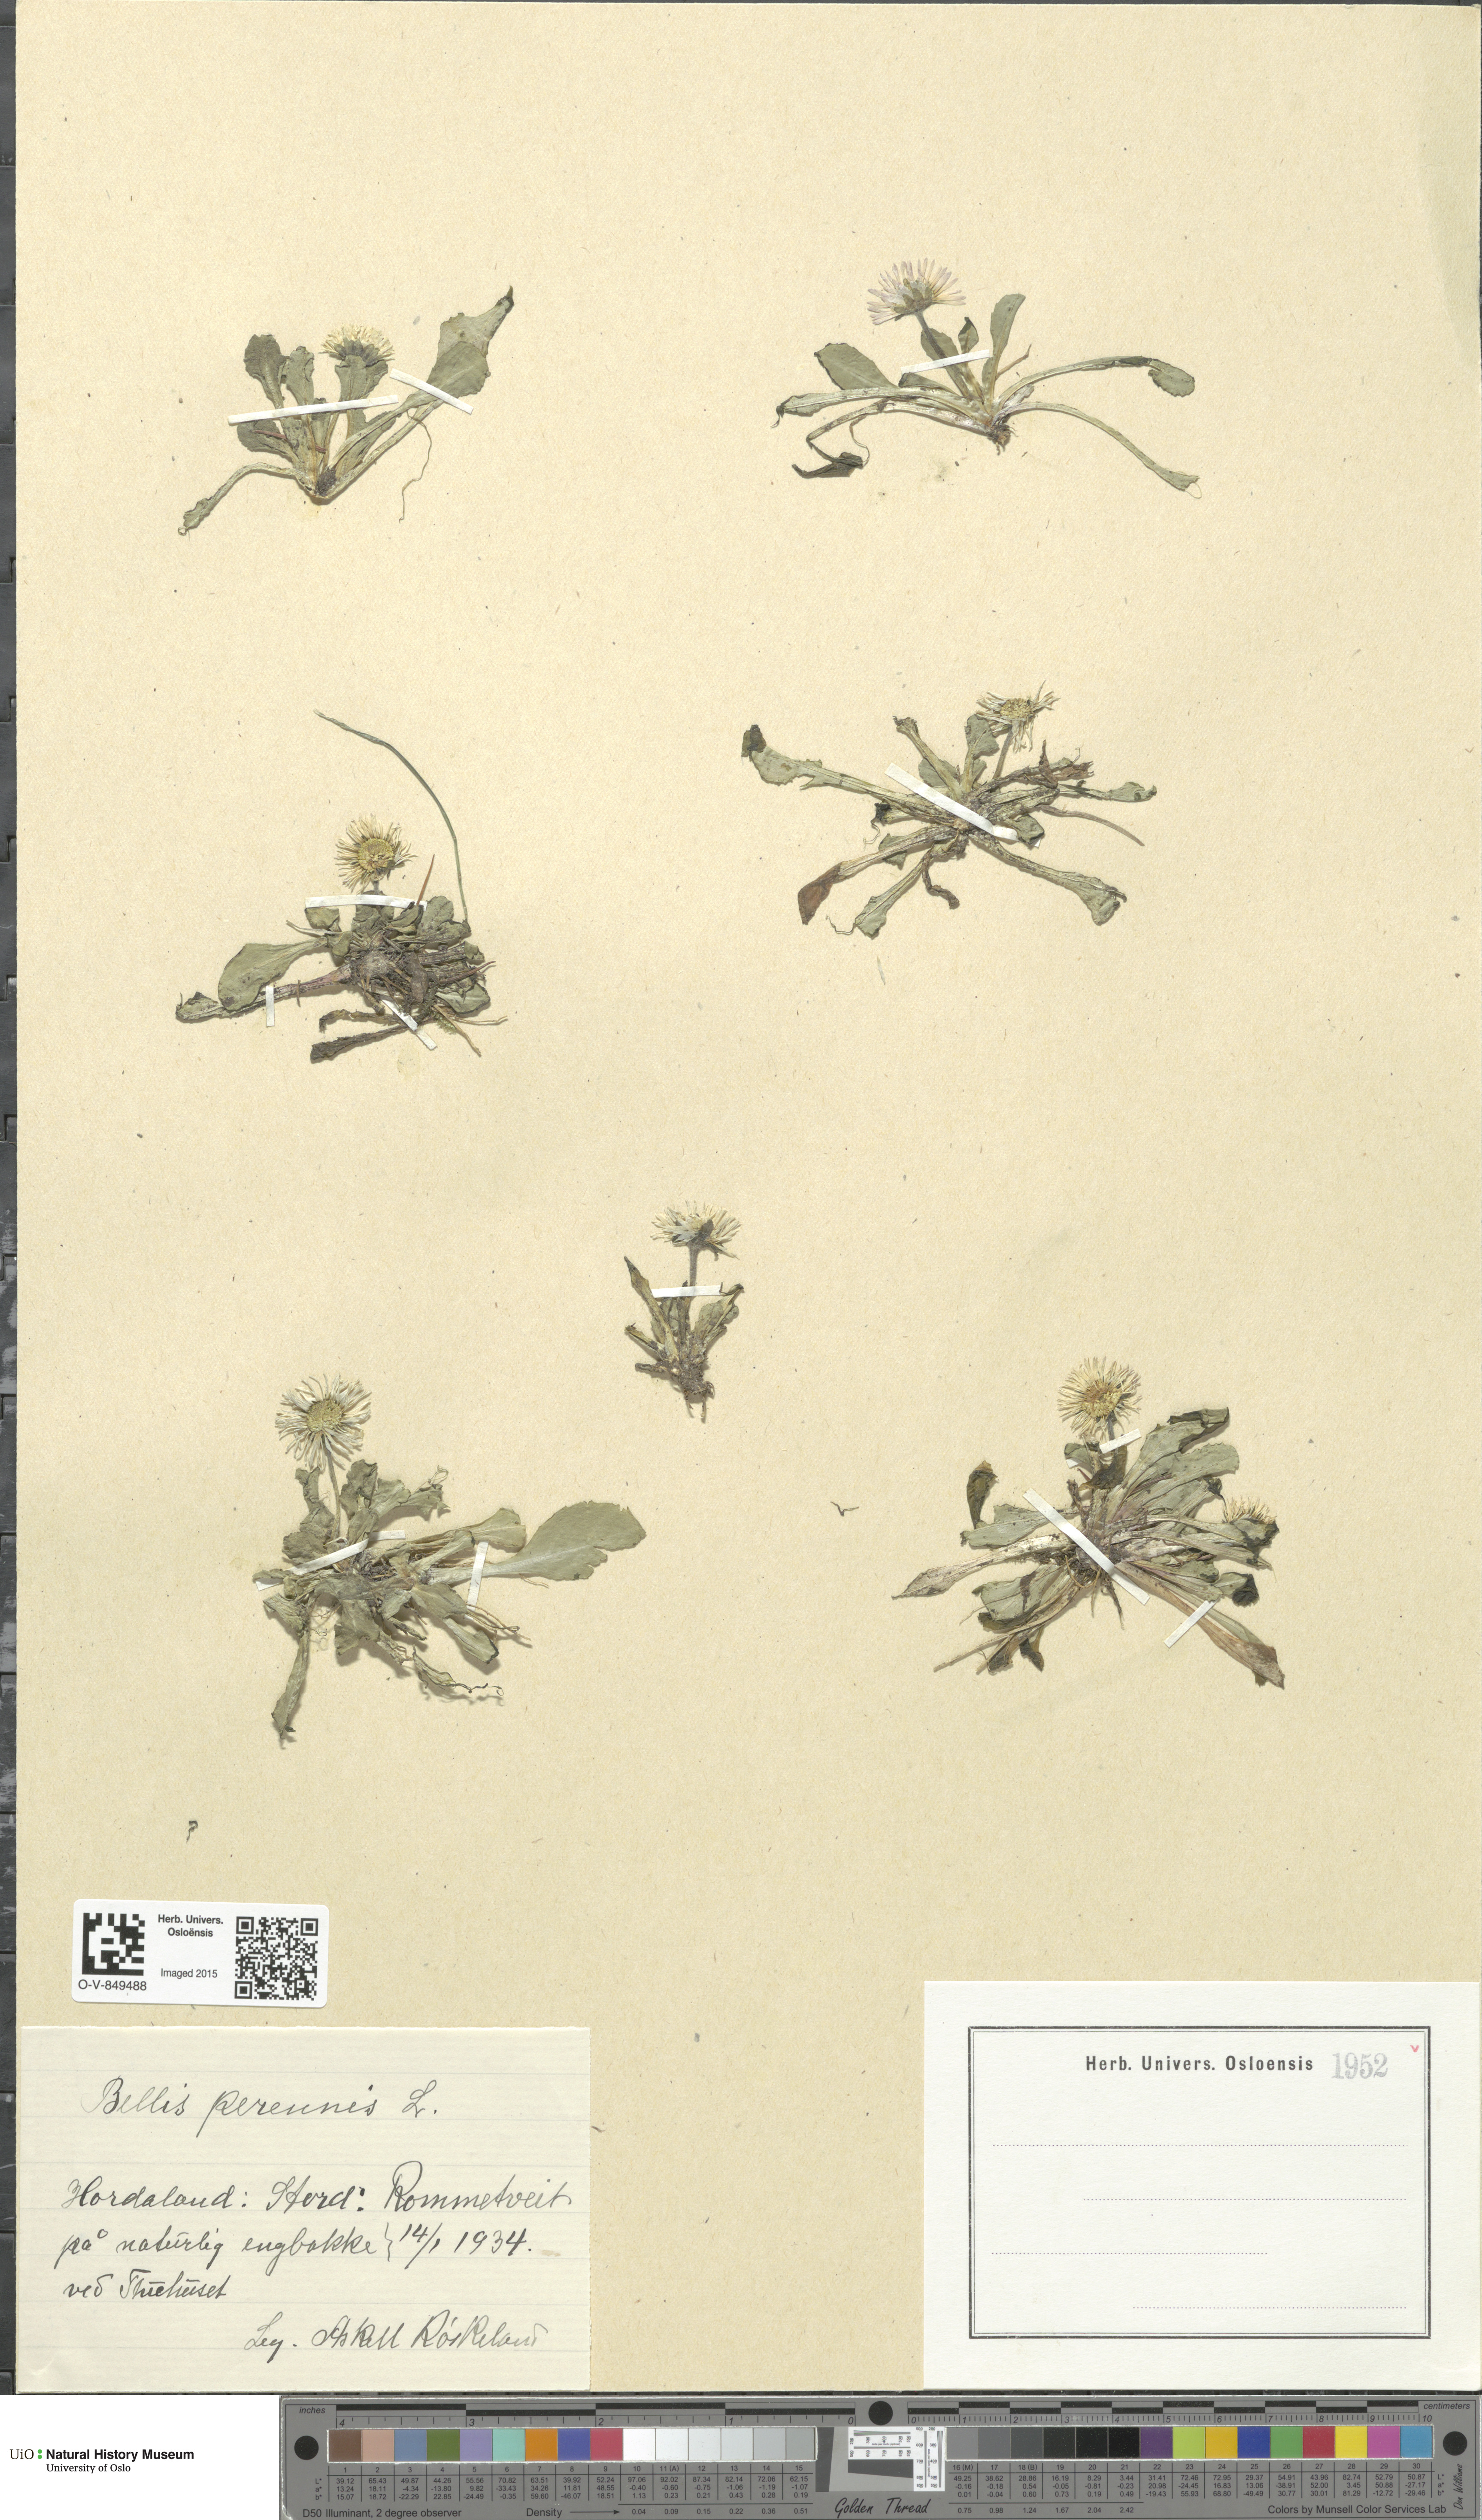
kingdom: Plantae
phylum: Tracheophyta
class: Magnoliopsida
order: Asterales
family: Asteraceae
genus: Bellis
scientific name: Bellis perennis
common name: Lawndaisy
